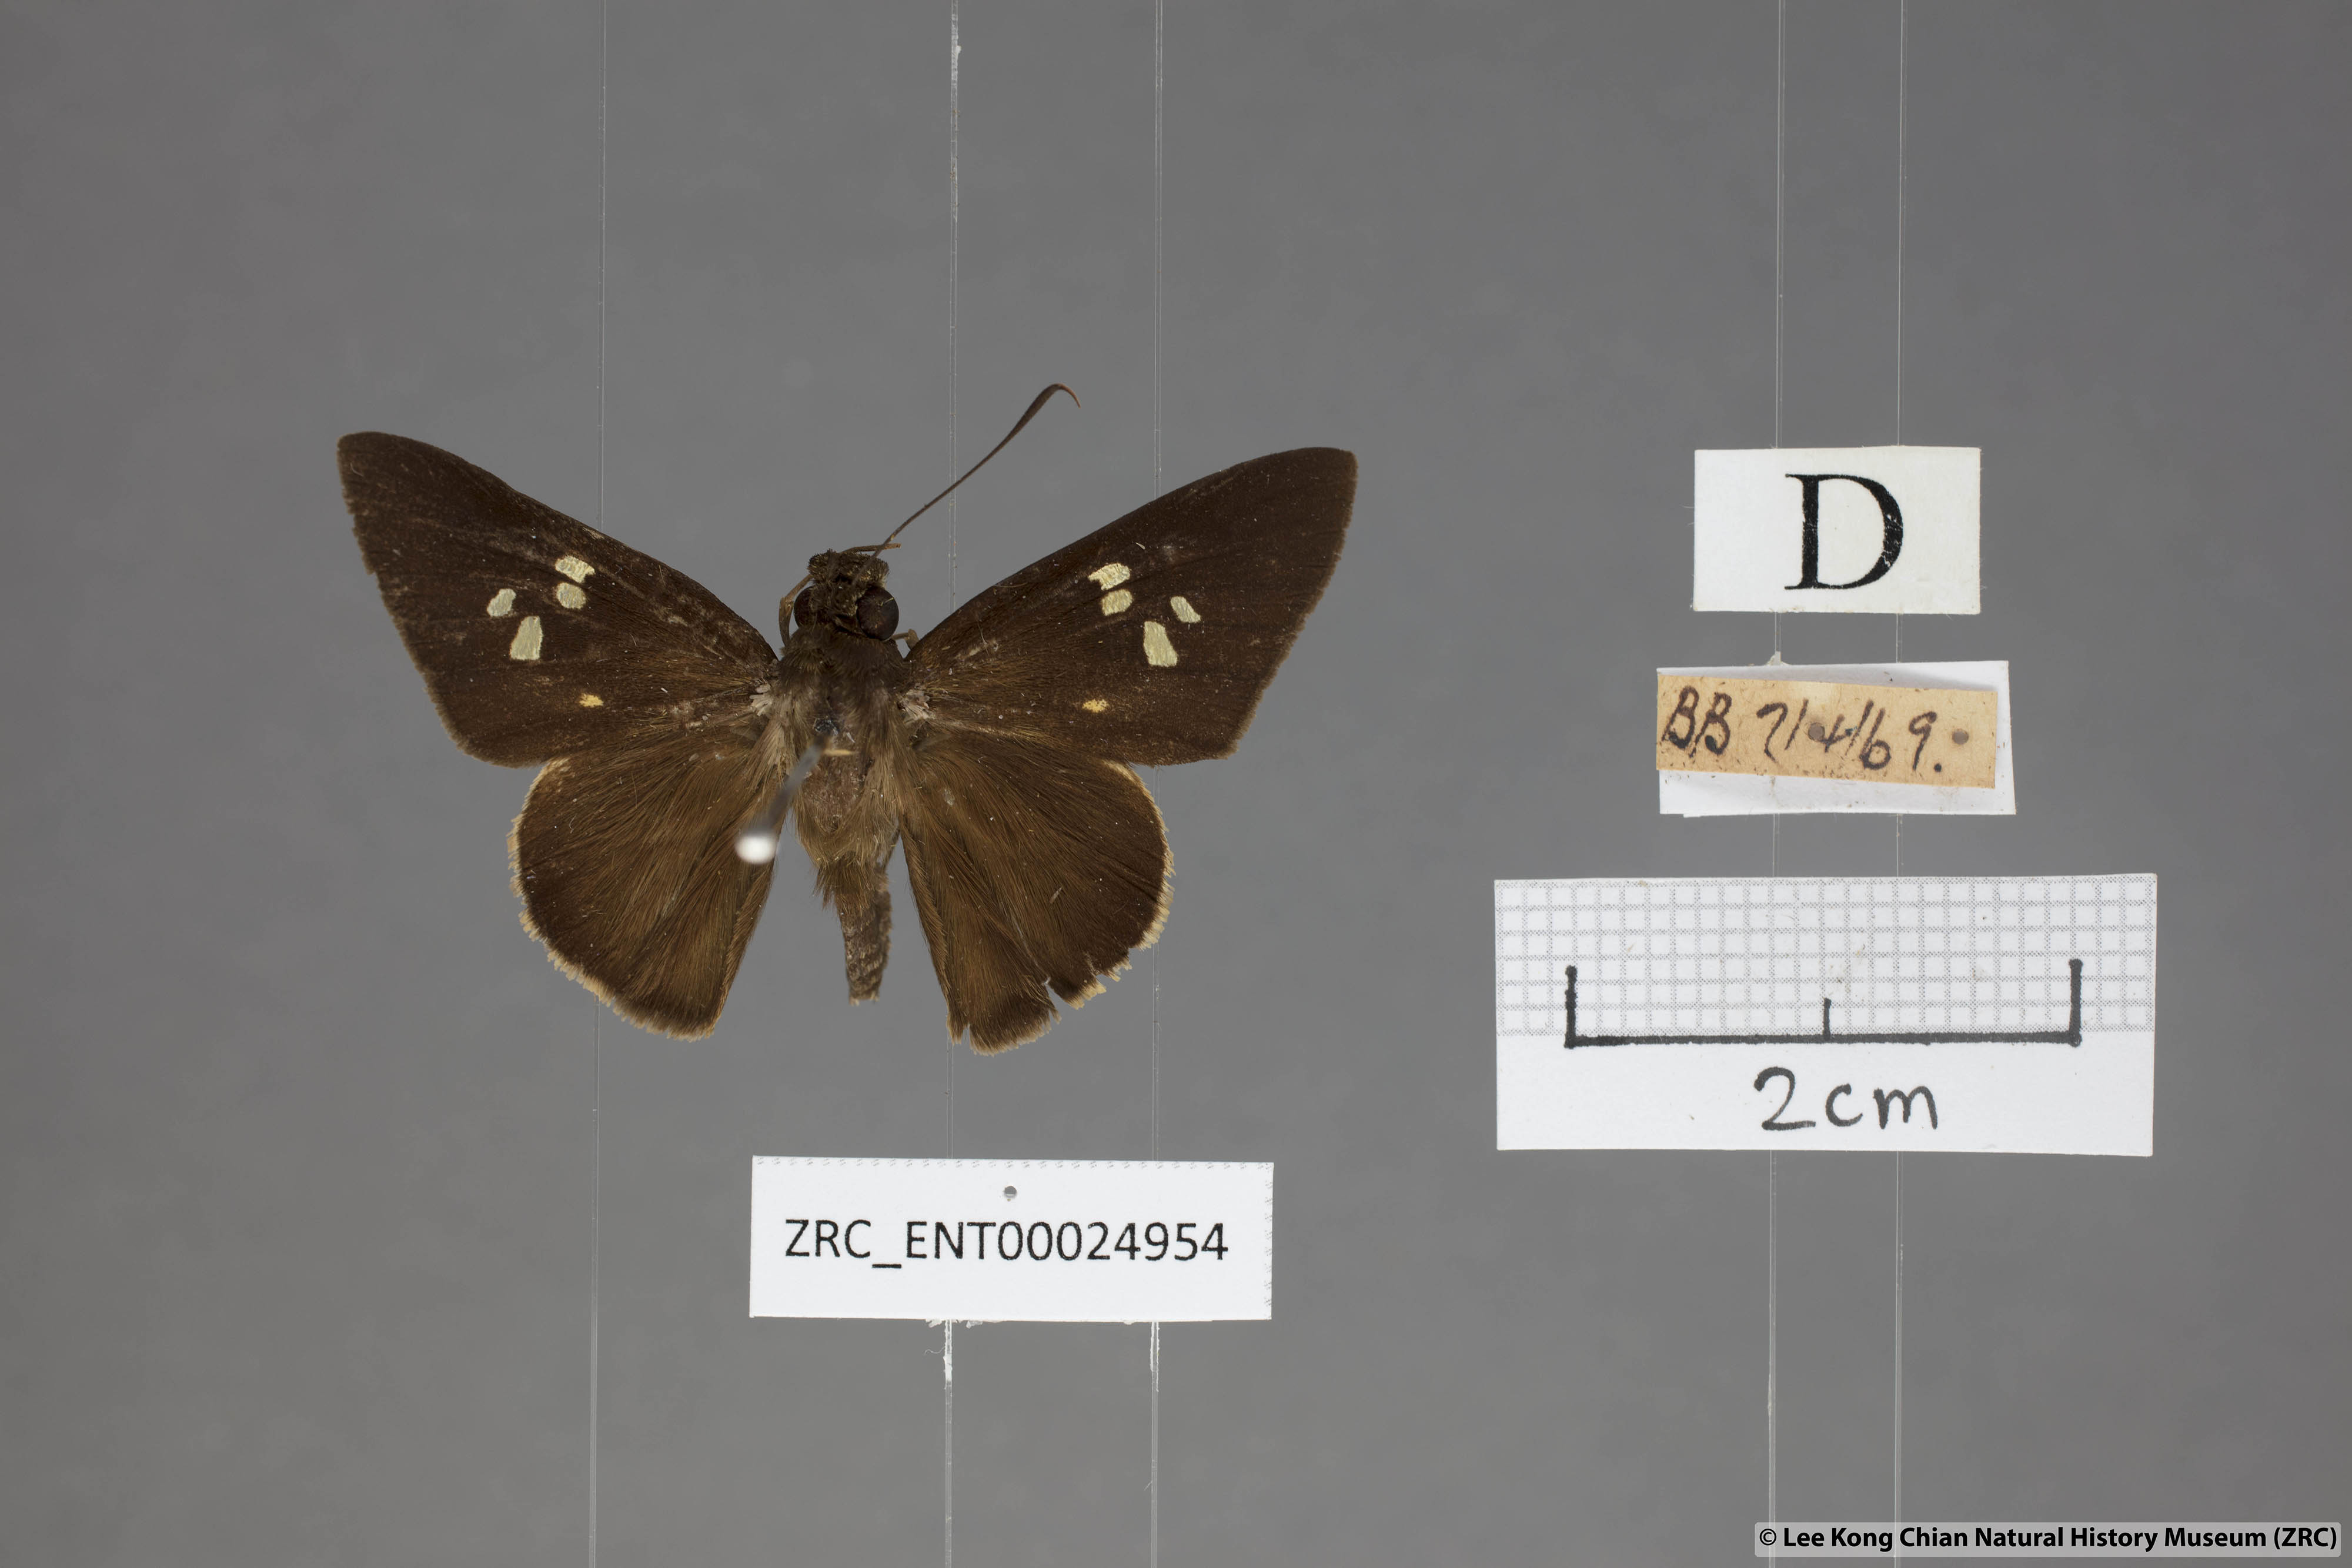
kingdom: Animalia
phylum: Arthropoda
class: Insecta
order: Lepidoptera
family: Hesperiidae
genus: Lotongus
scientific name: Lotongus calathus
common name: White-tipped palmer
